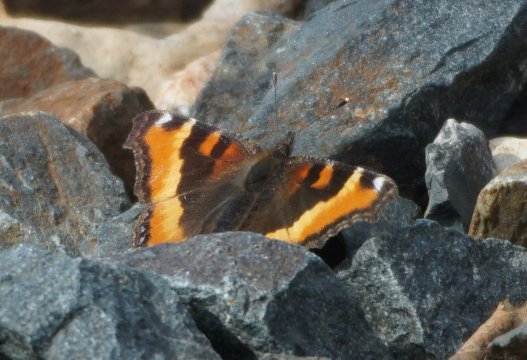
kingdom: Animalia
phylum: Arthropoda
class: Insecta
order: Lepidoptera
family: Nymphalidae
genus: Aglais
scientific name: Aglais milberti
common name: Milbert's Tortoiseshell
